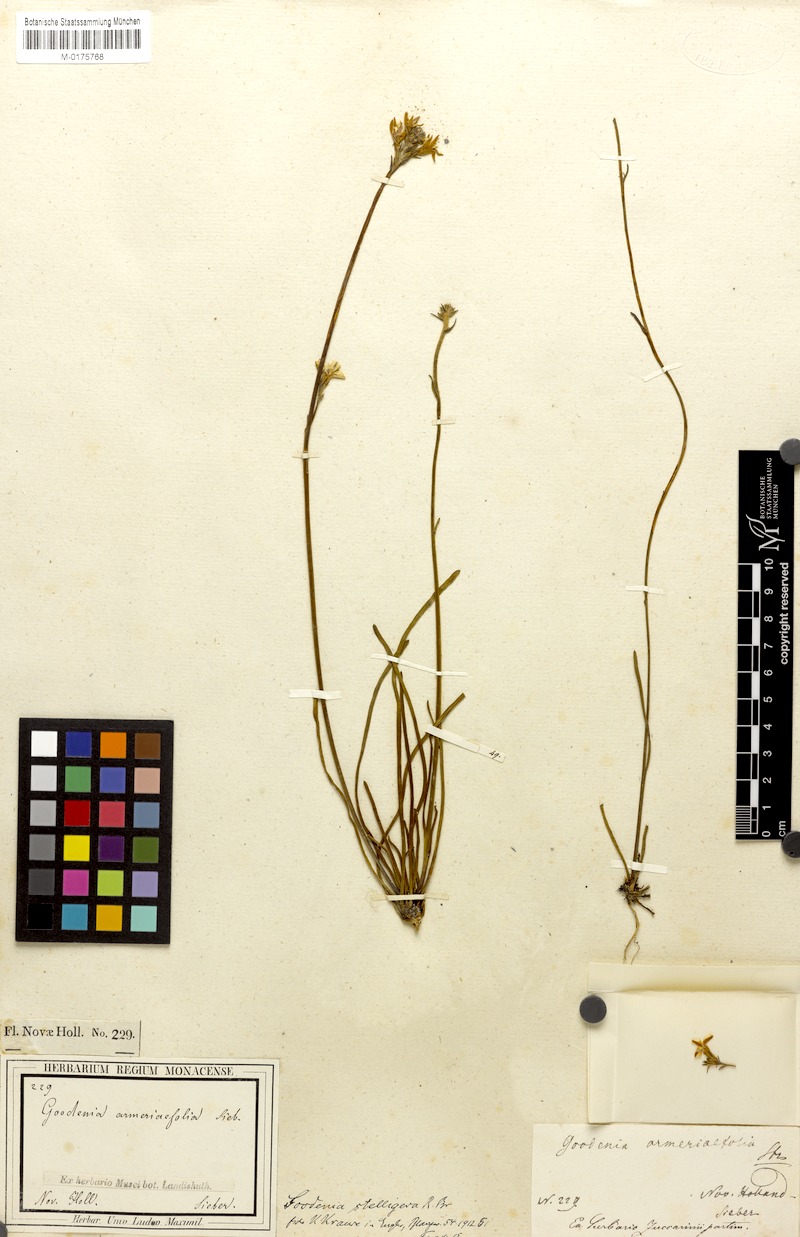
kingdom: Plantae
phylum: Tracheophyta
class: Magnoliopsida
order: Asterales
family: Goodeniaceae
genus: Goodenia
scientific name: Goodenia stelligera
